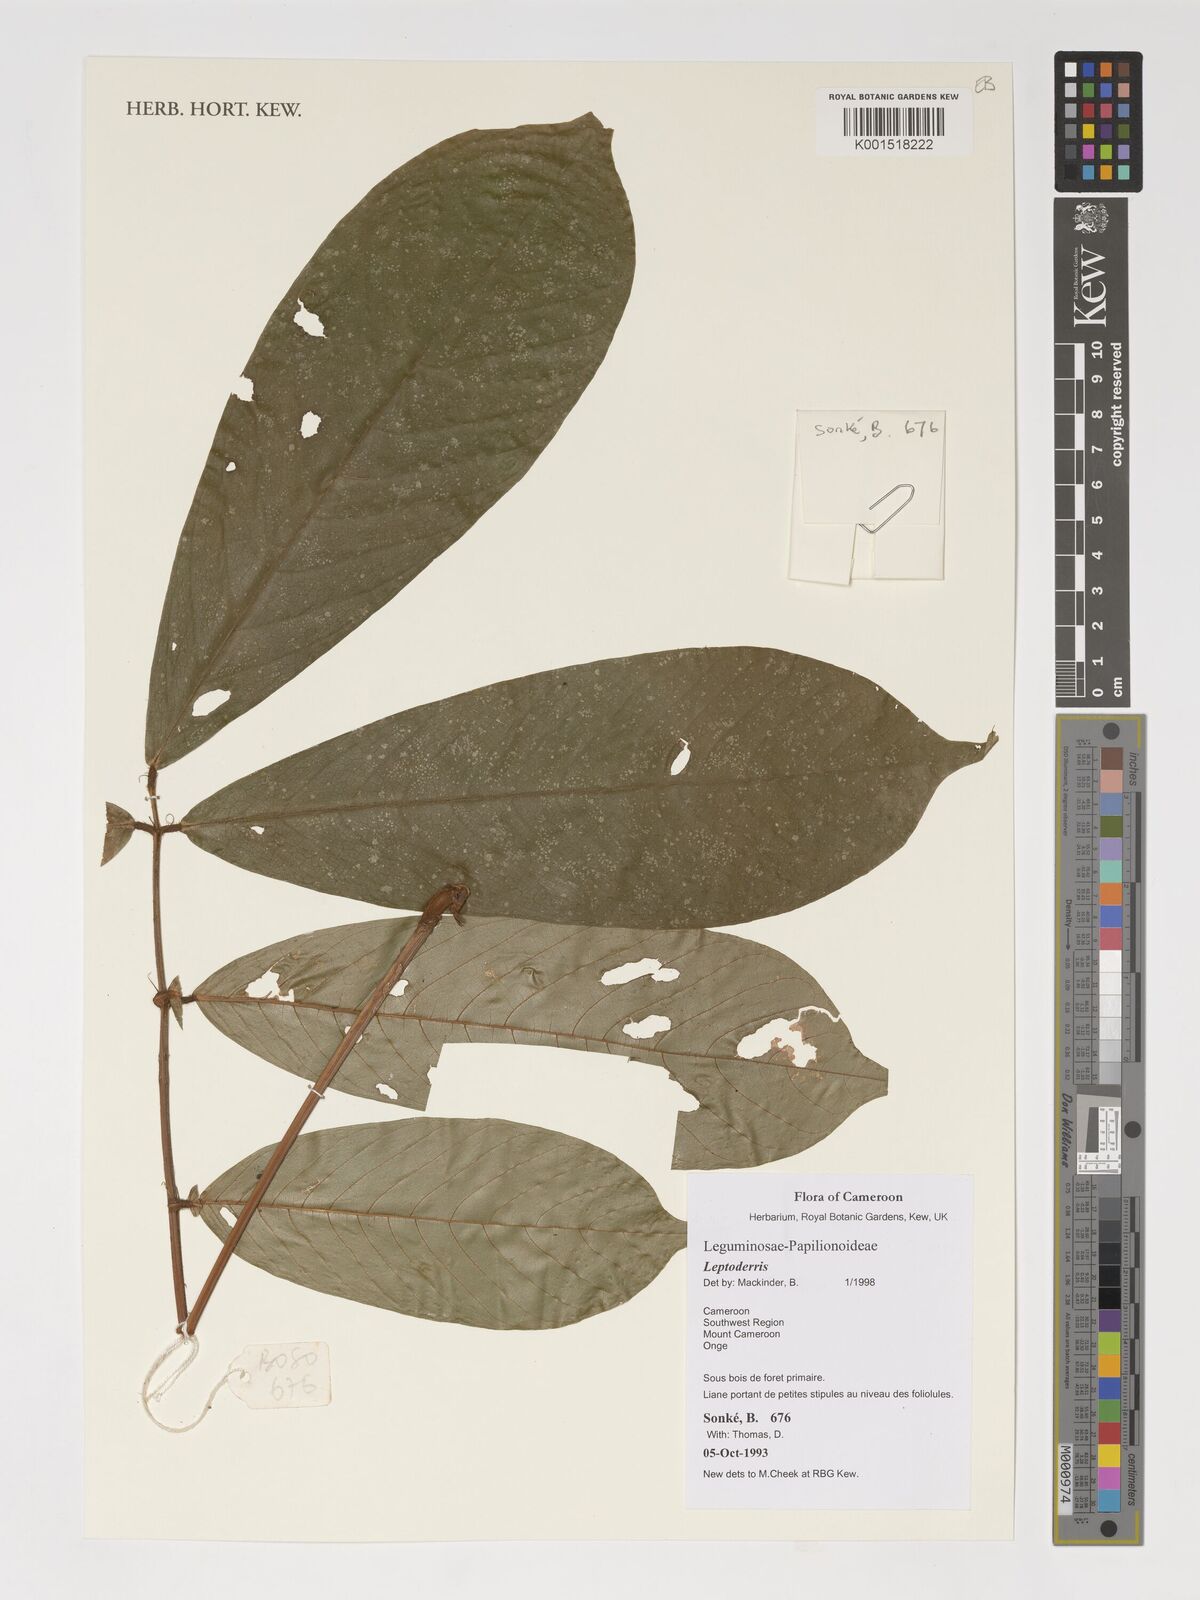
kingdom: Plantae
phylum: Tracheophyta
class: Magnoliopsida
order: Fabales
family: Fabaceae
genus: Leptoderris
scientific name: Leptoderris
